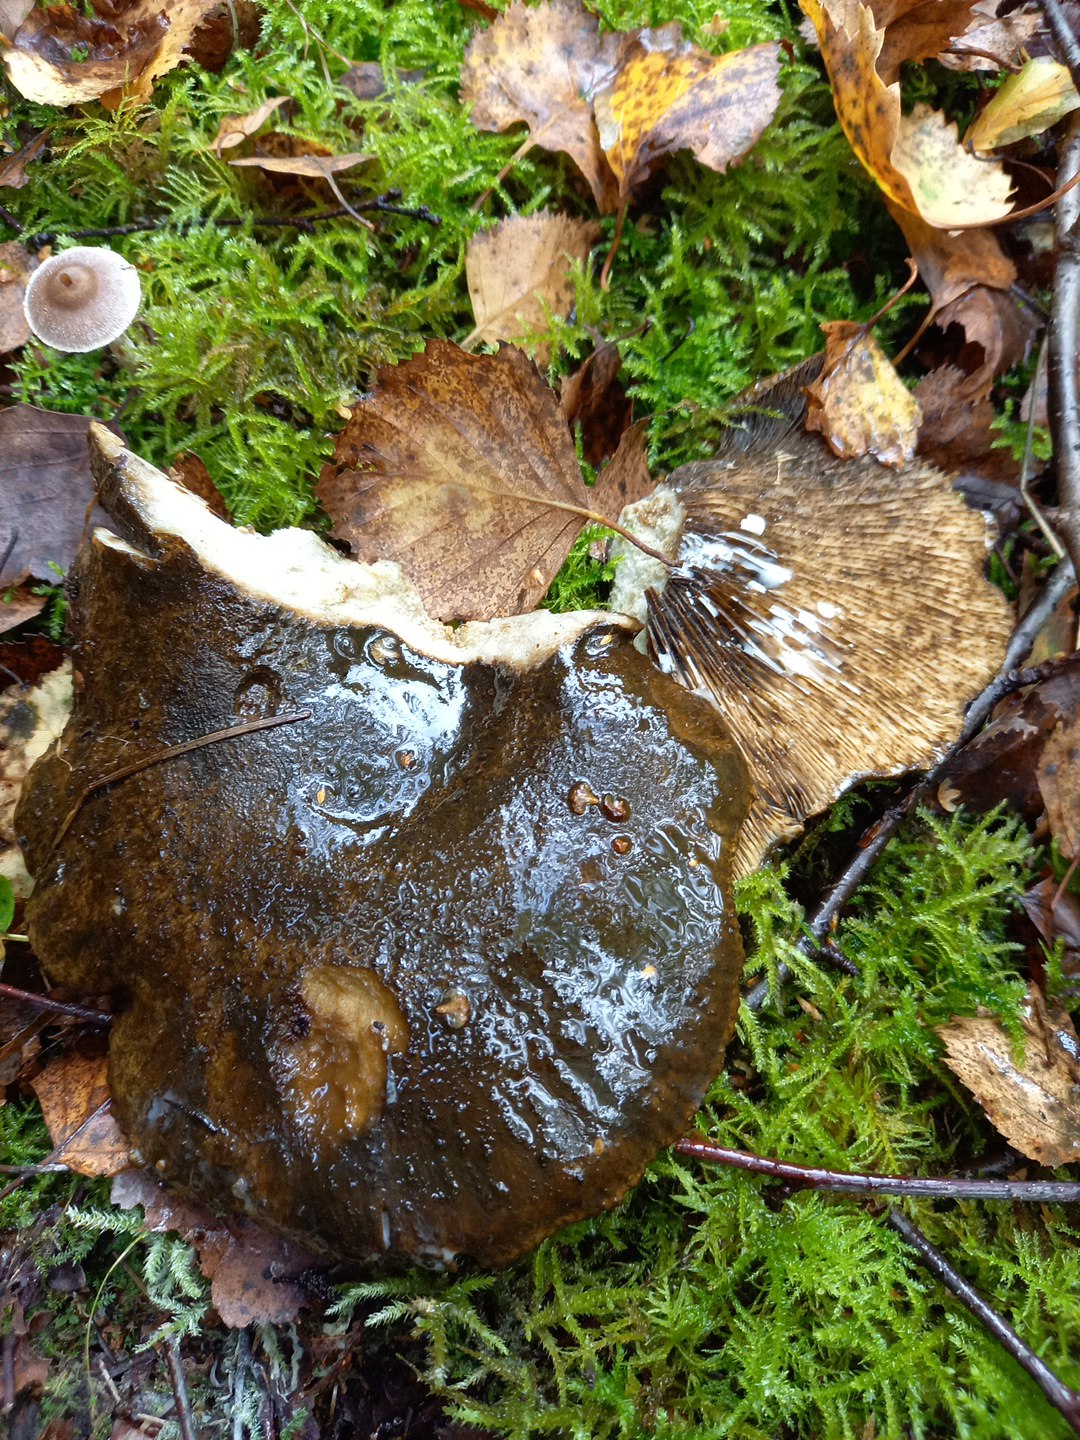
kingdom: Fungi
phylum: Basidiomycota
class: Agaricomycetes
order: Russulales
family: Russulaceae
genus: Lactarius
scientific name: Lactarius necator
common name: manddraber-mælkehat
